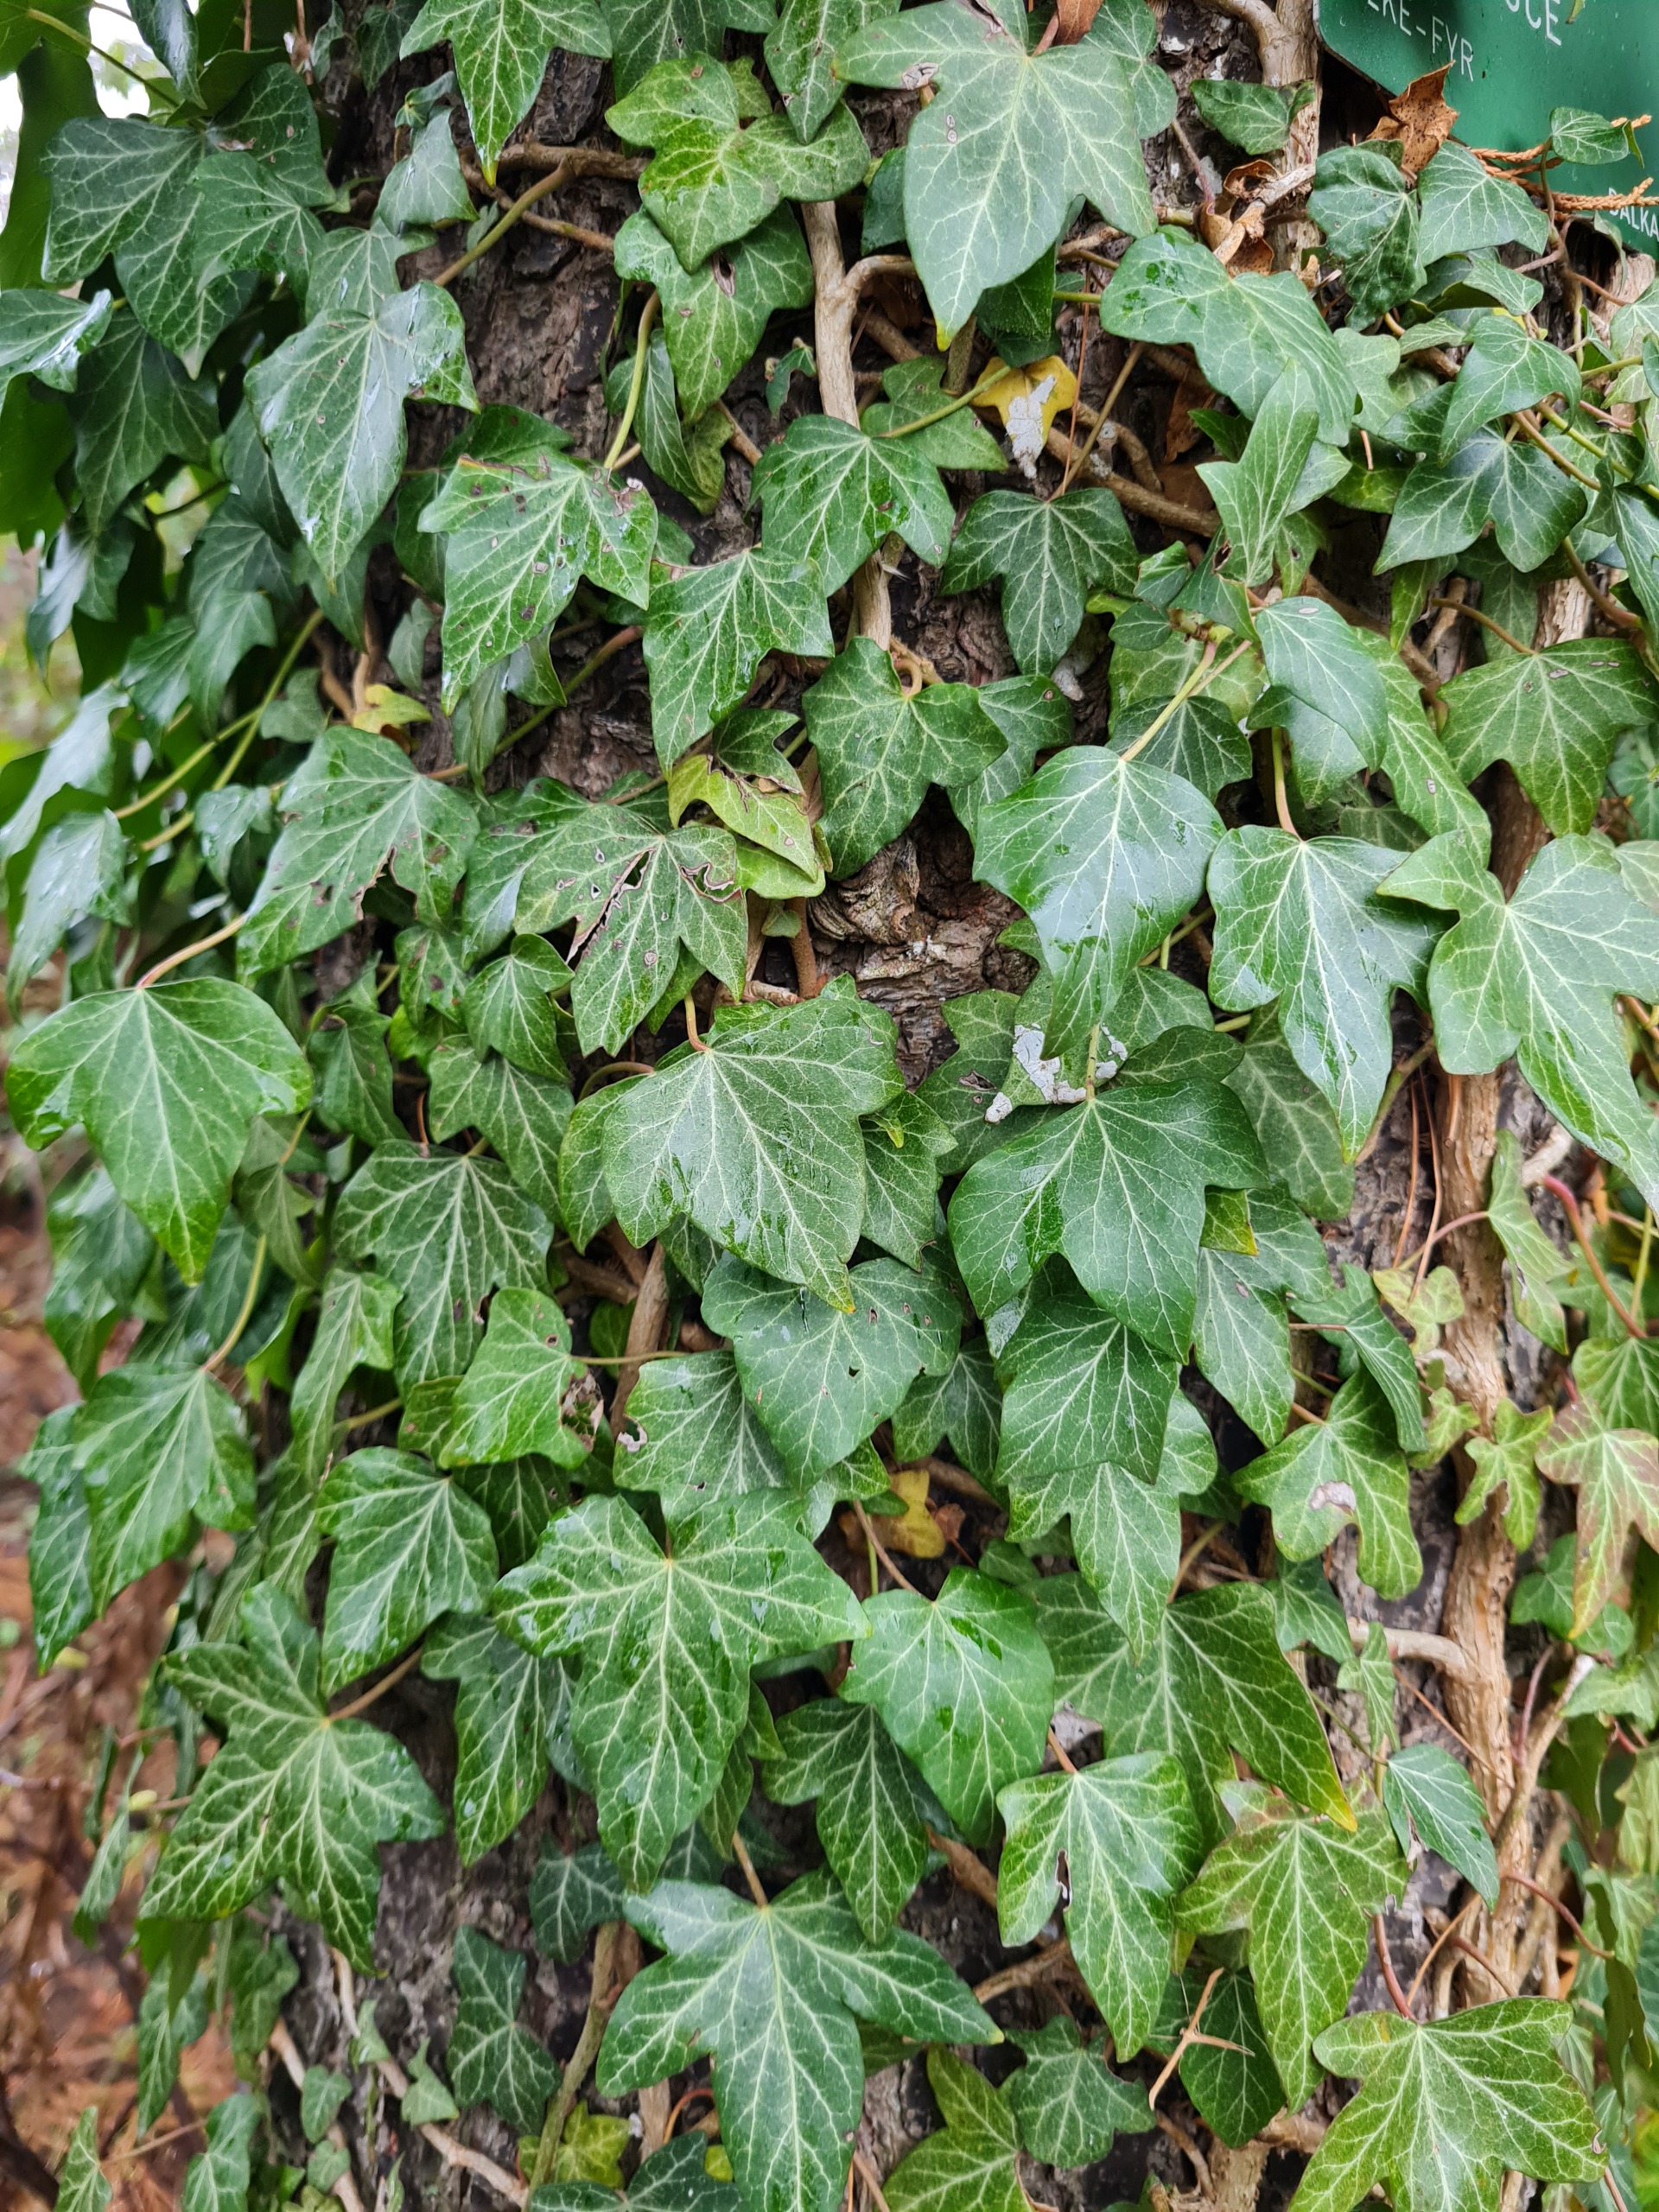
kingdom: Plantae
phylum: Tracheophyta
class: Magnoliopsida
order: Apiales
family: Araliaceae
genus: Hedera
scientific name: Hedera helix
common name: Vedbend
